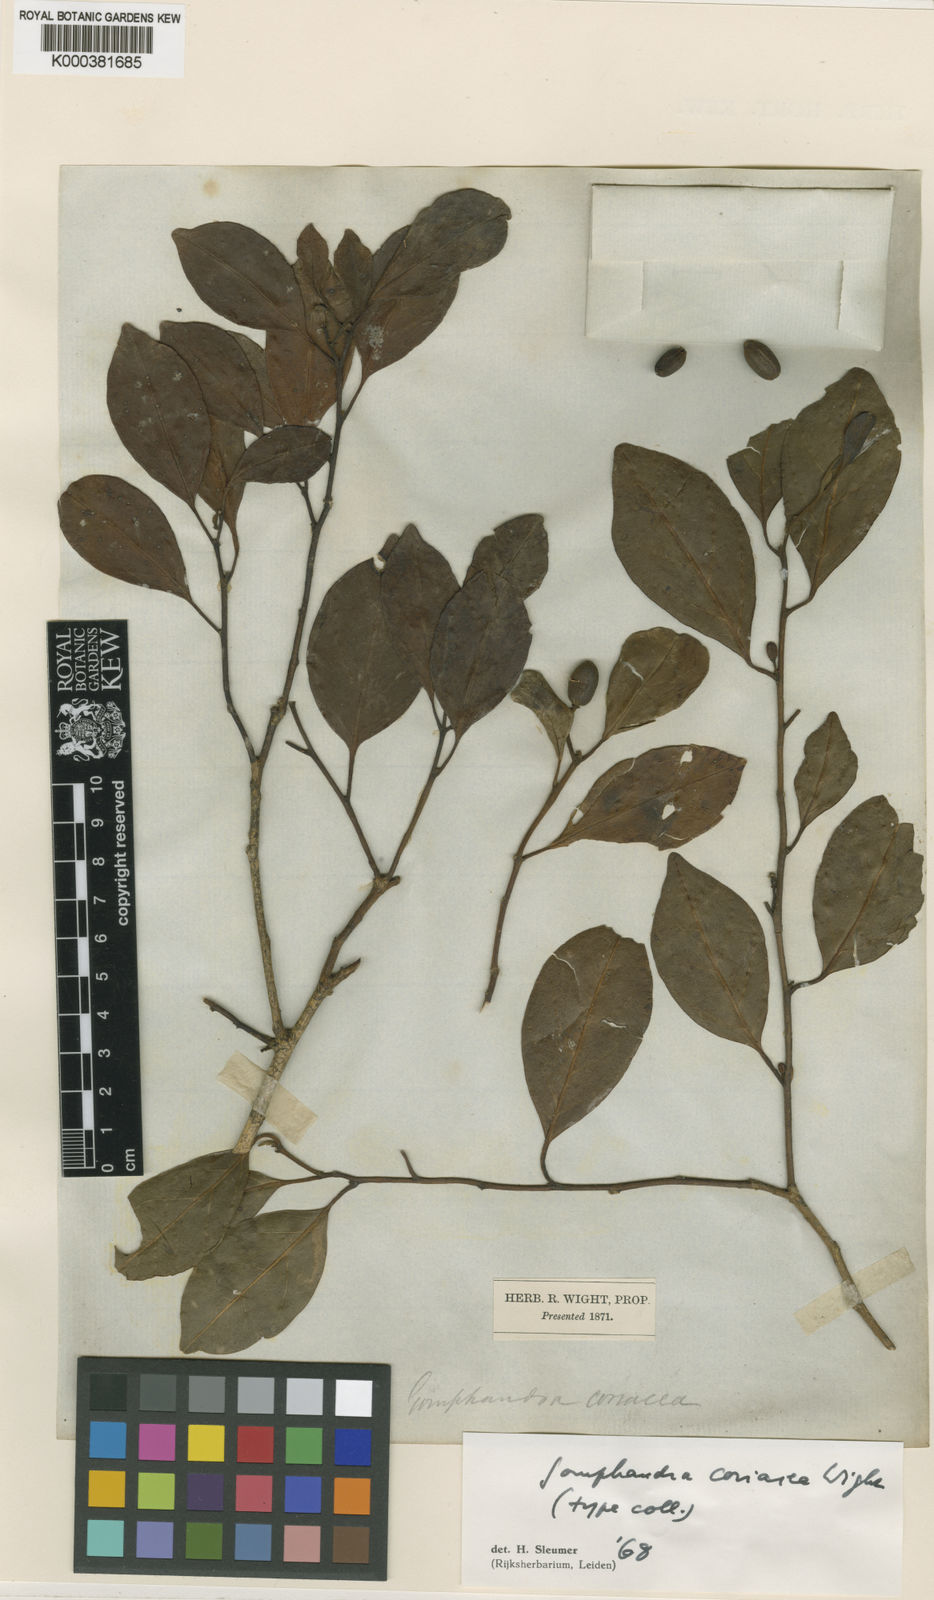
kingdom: Plantae
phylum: Tracheophyta
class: Magnoliopsida
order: Cardiopteridales
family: Stemonuraceae
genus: Gomphandra
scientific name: Gomphandra coriacea
